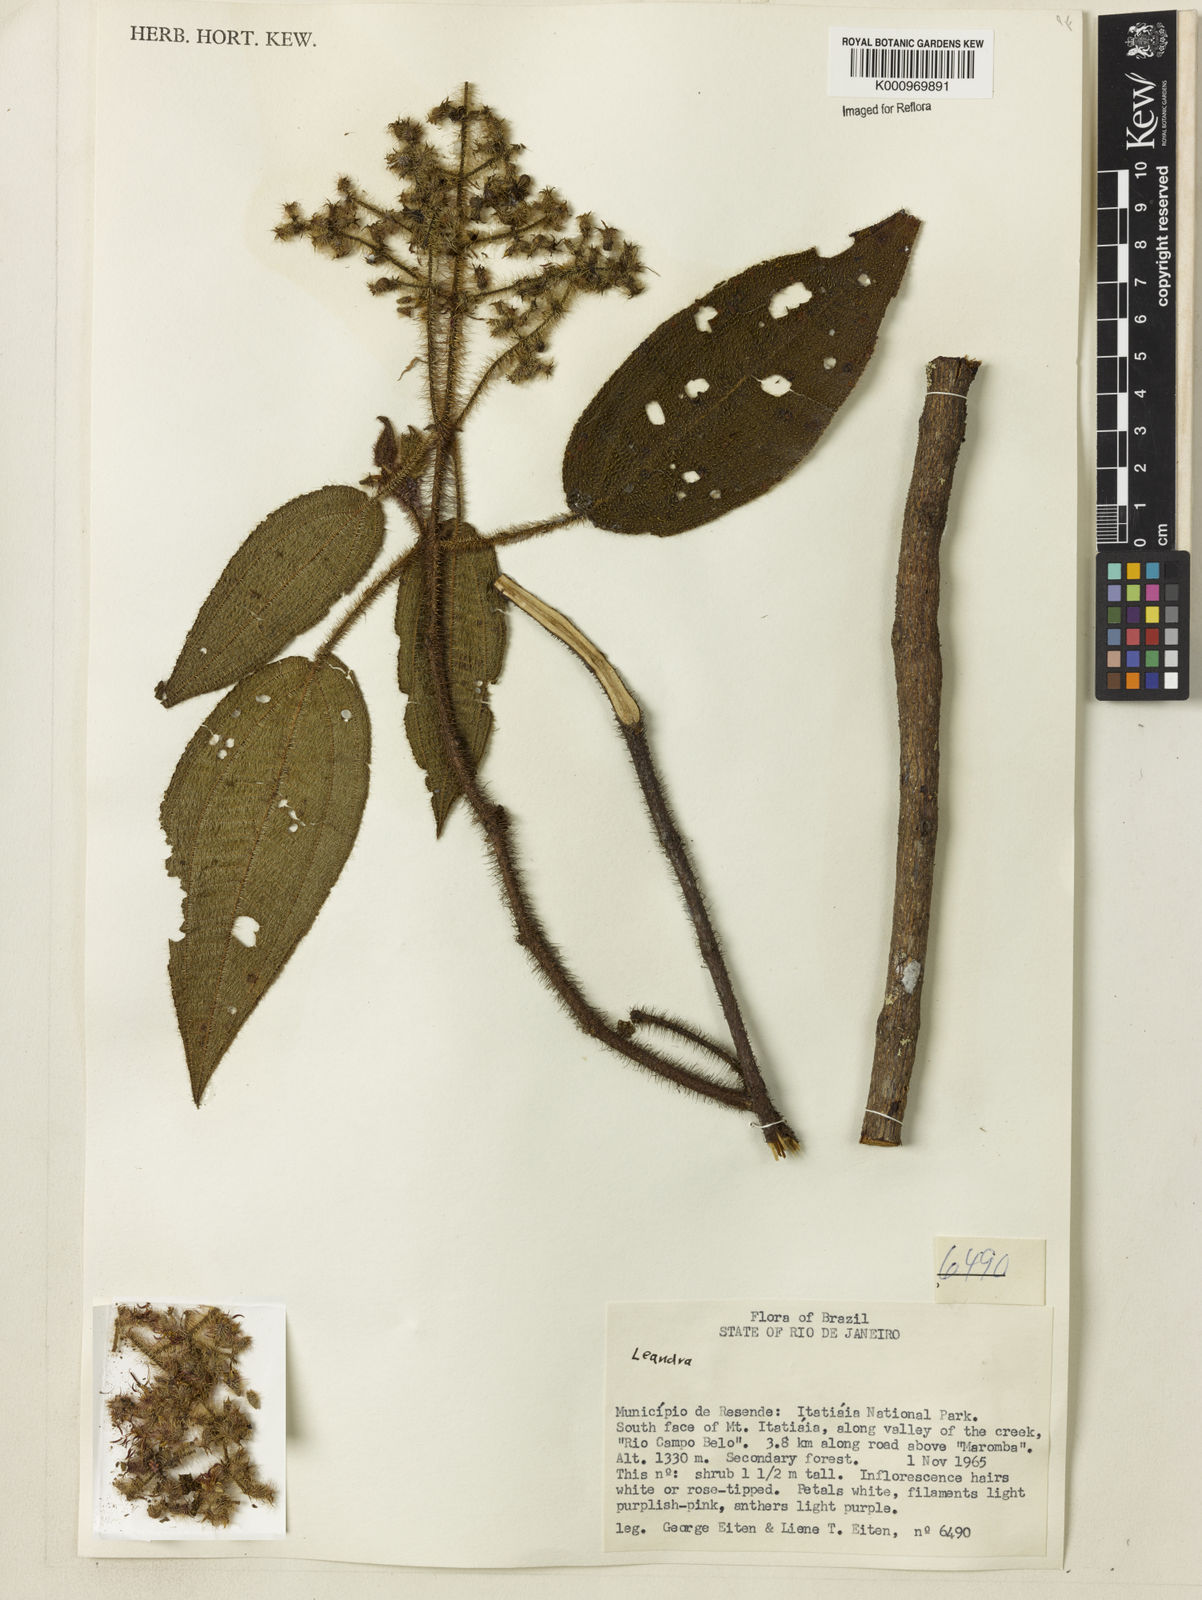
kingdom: Plantae
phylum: Tracheophyta
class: Magnoliopsida
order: Myrtales
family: Melastomataceae
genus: Miconia
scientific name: Miconia
